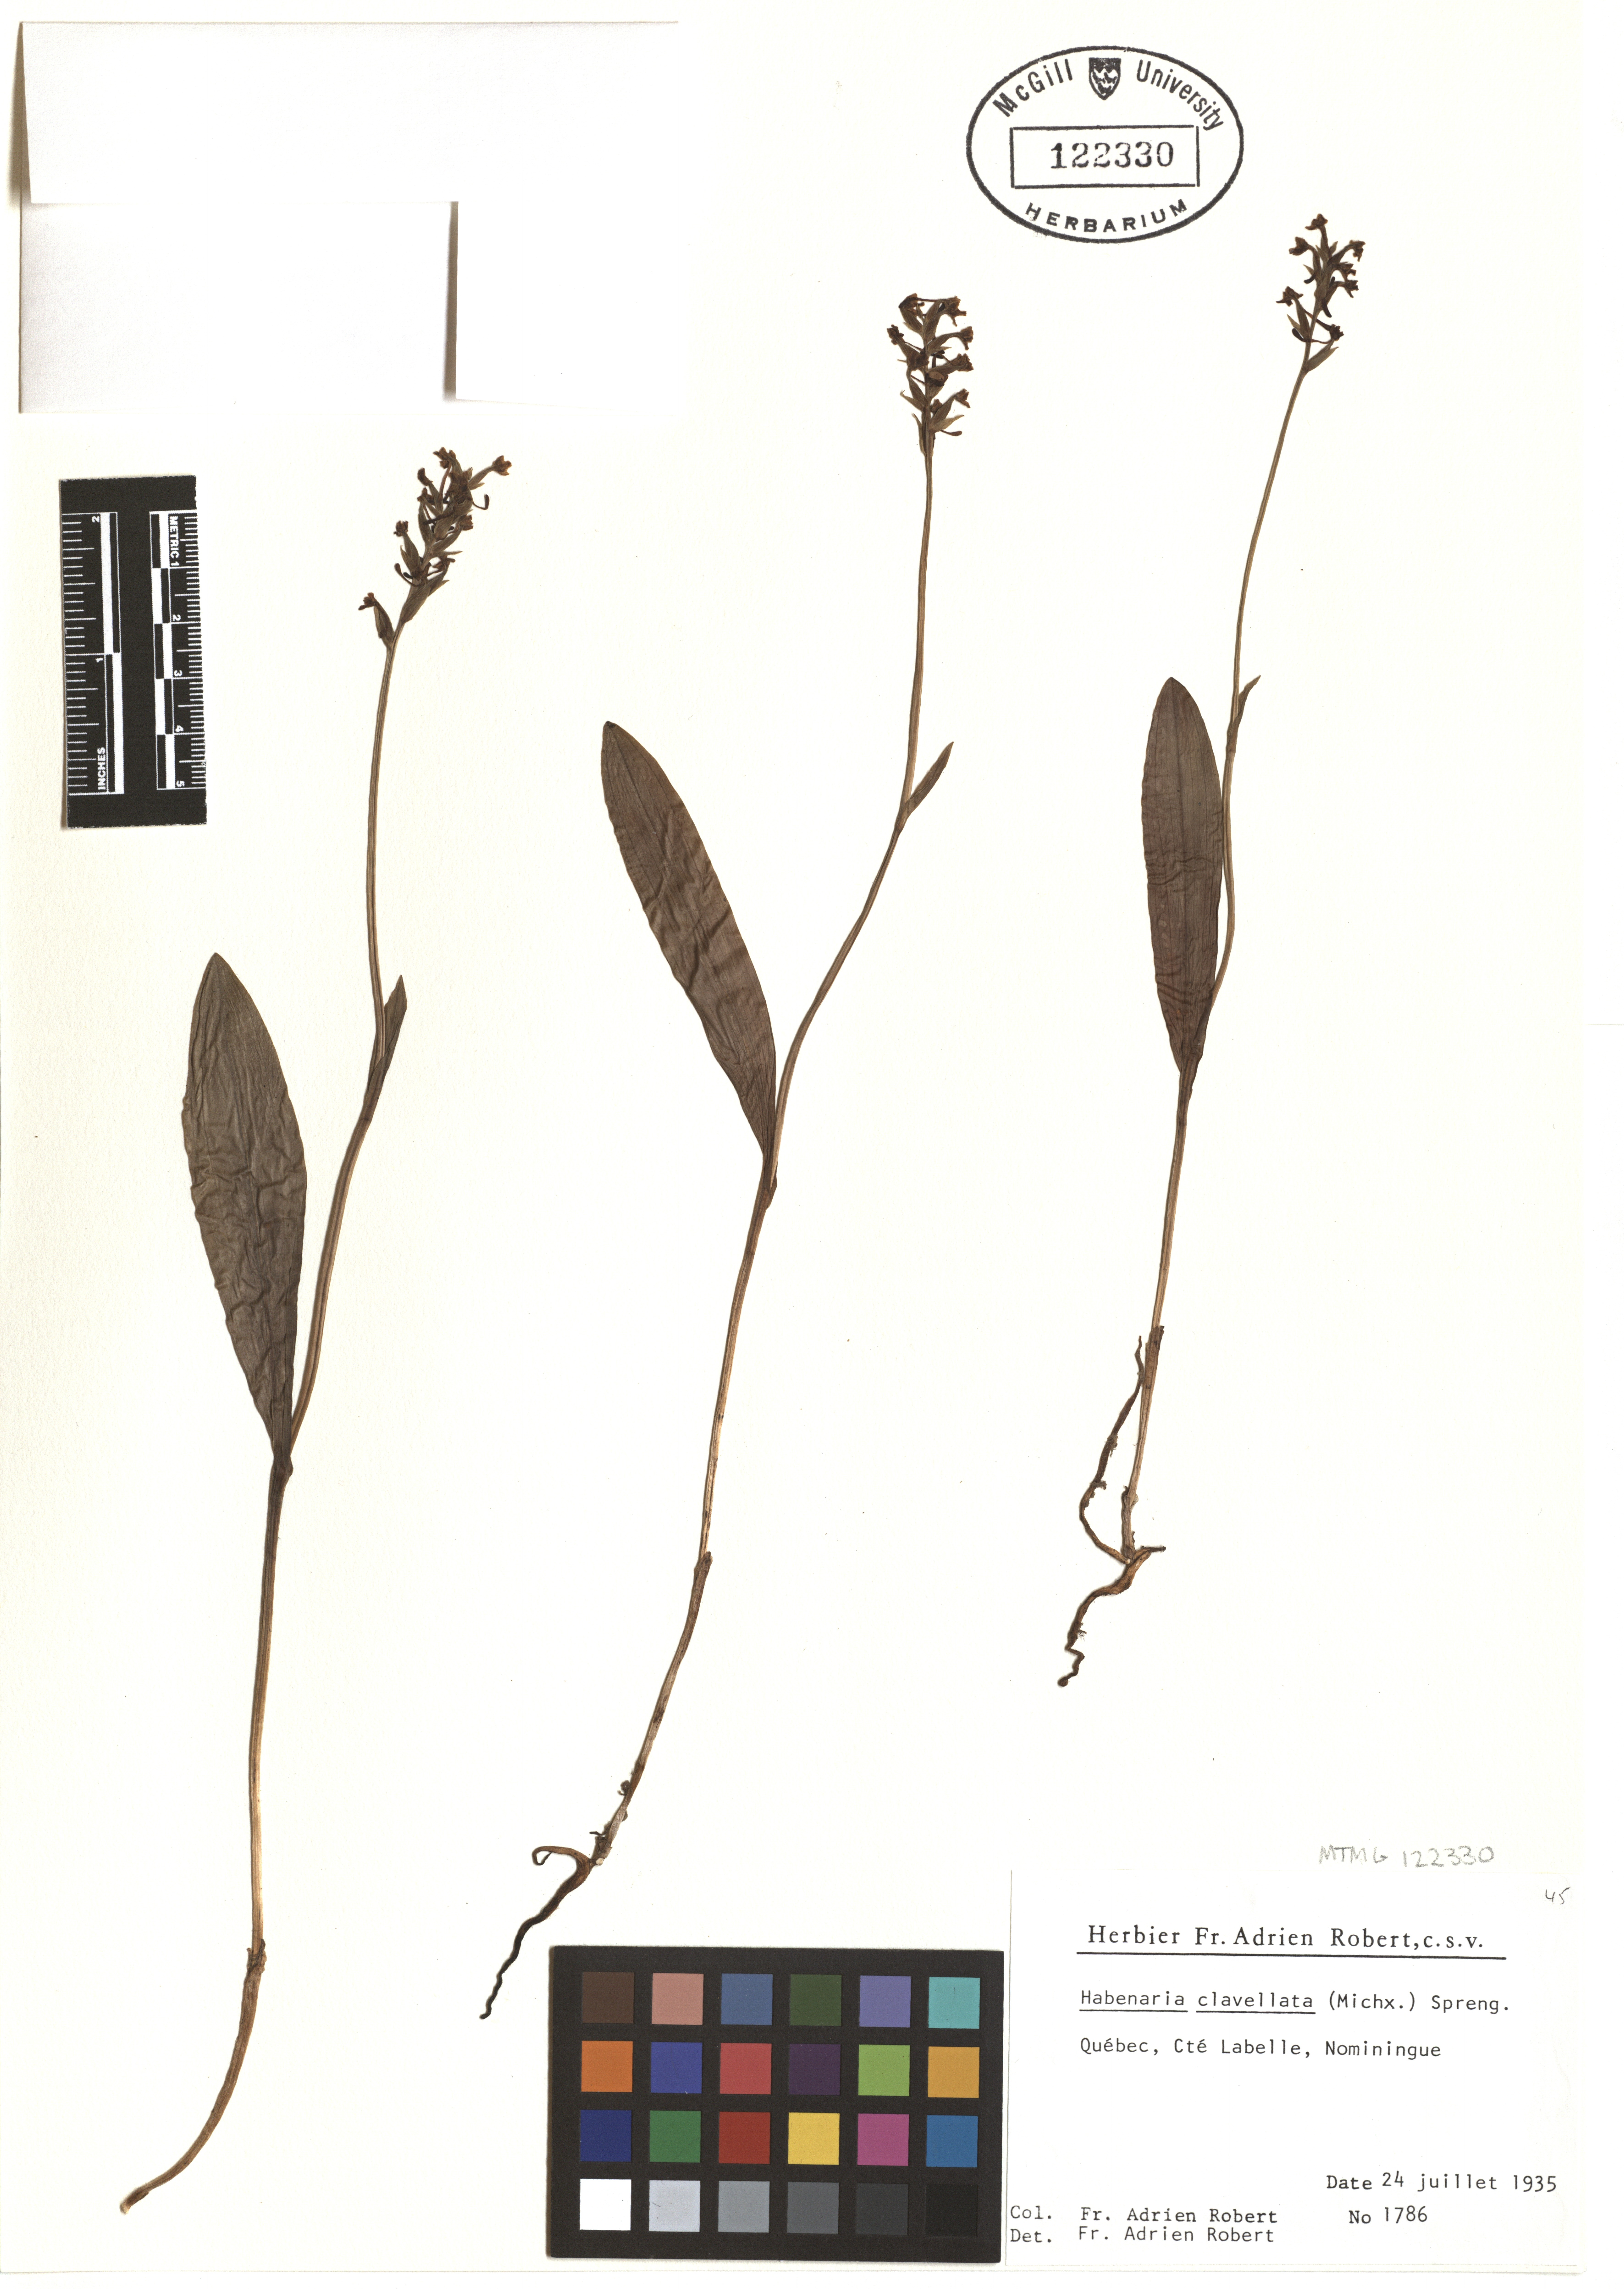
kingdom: Plantae
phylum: Tracheophyta
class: Liliopsida
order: Asparagales
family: Orchidaceae
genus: Platanthera
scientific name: Platanthera clavellata
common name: Club-spur orchid
